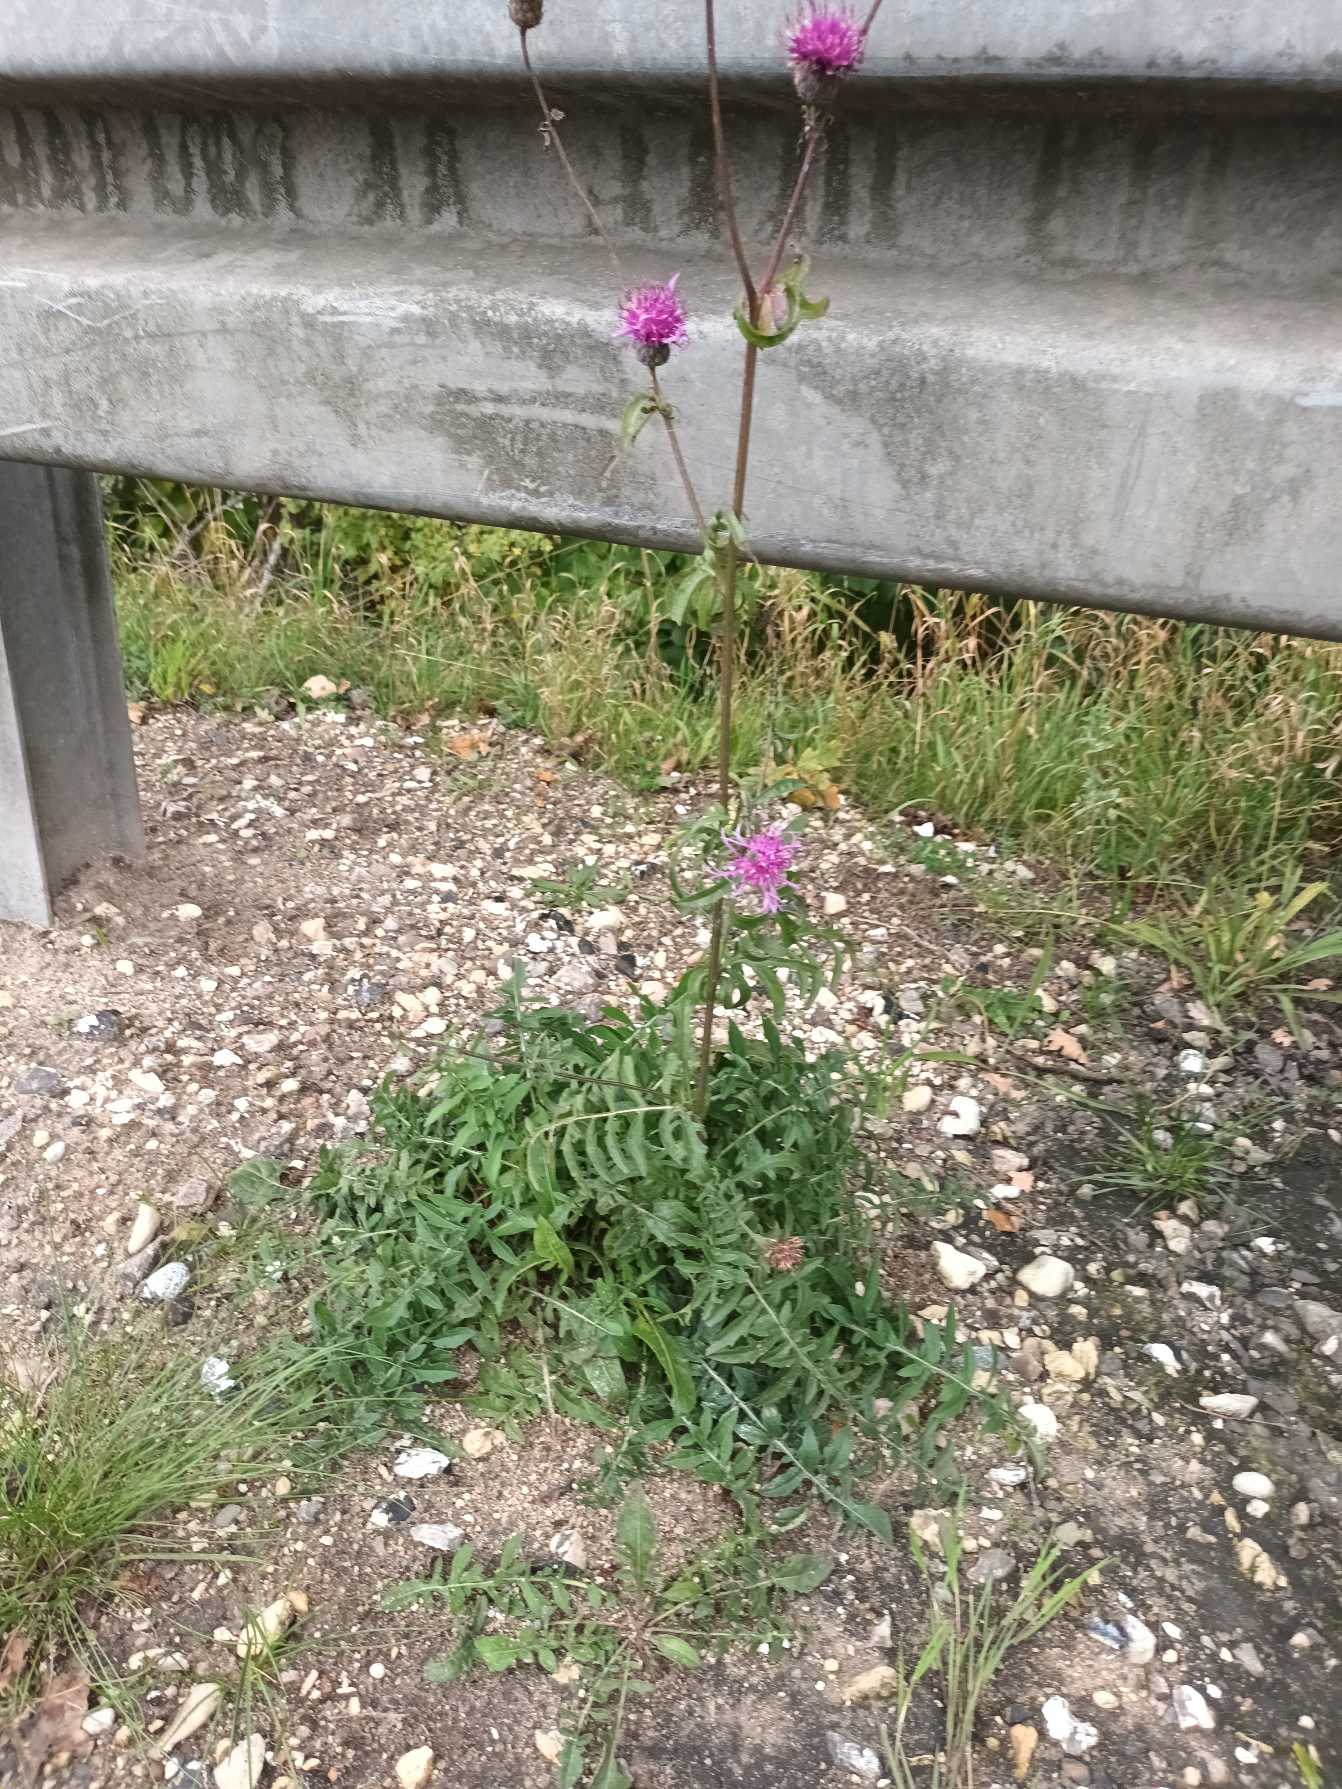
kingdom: Plantae
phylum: Tracheophyta
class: Magnoliopsida
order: Asterales
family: Asteraceae
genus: Centaurea
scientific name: Centaurea scabiosa
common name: Stor knopurt
